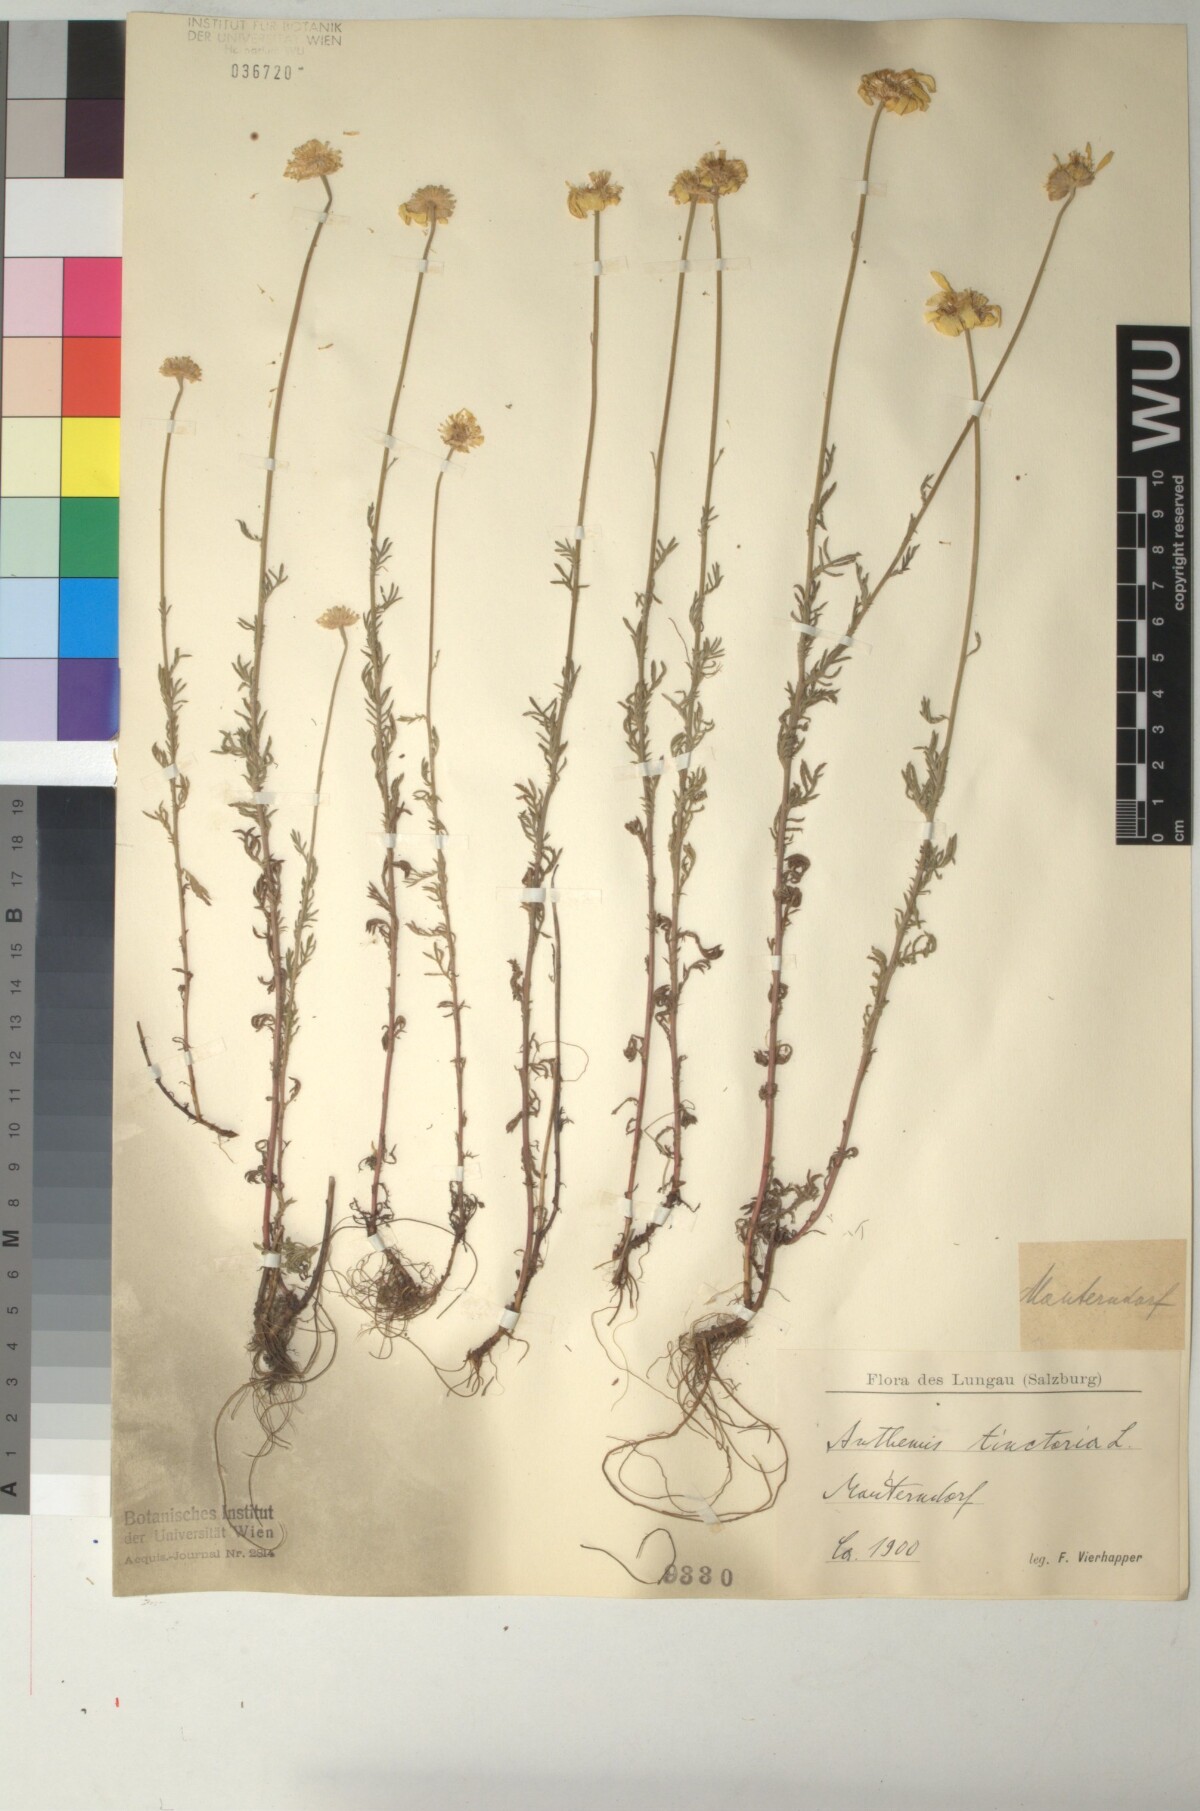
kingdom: Plantae
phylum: Tracheophyta
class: Magnoliopsida
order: Asterales
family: Asteraceae
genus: Cota
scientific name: Cota tinctoria
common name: Golden chamomile
